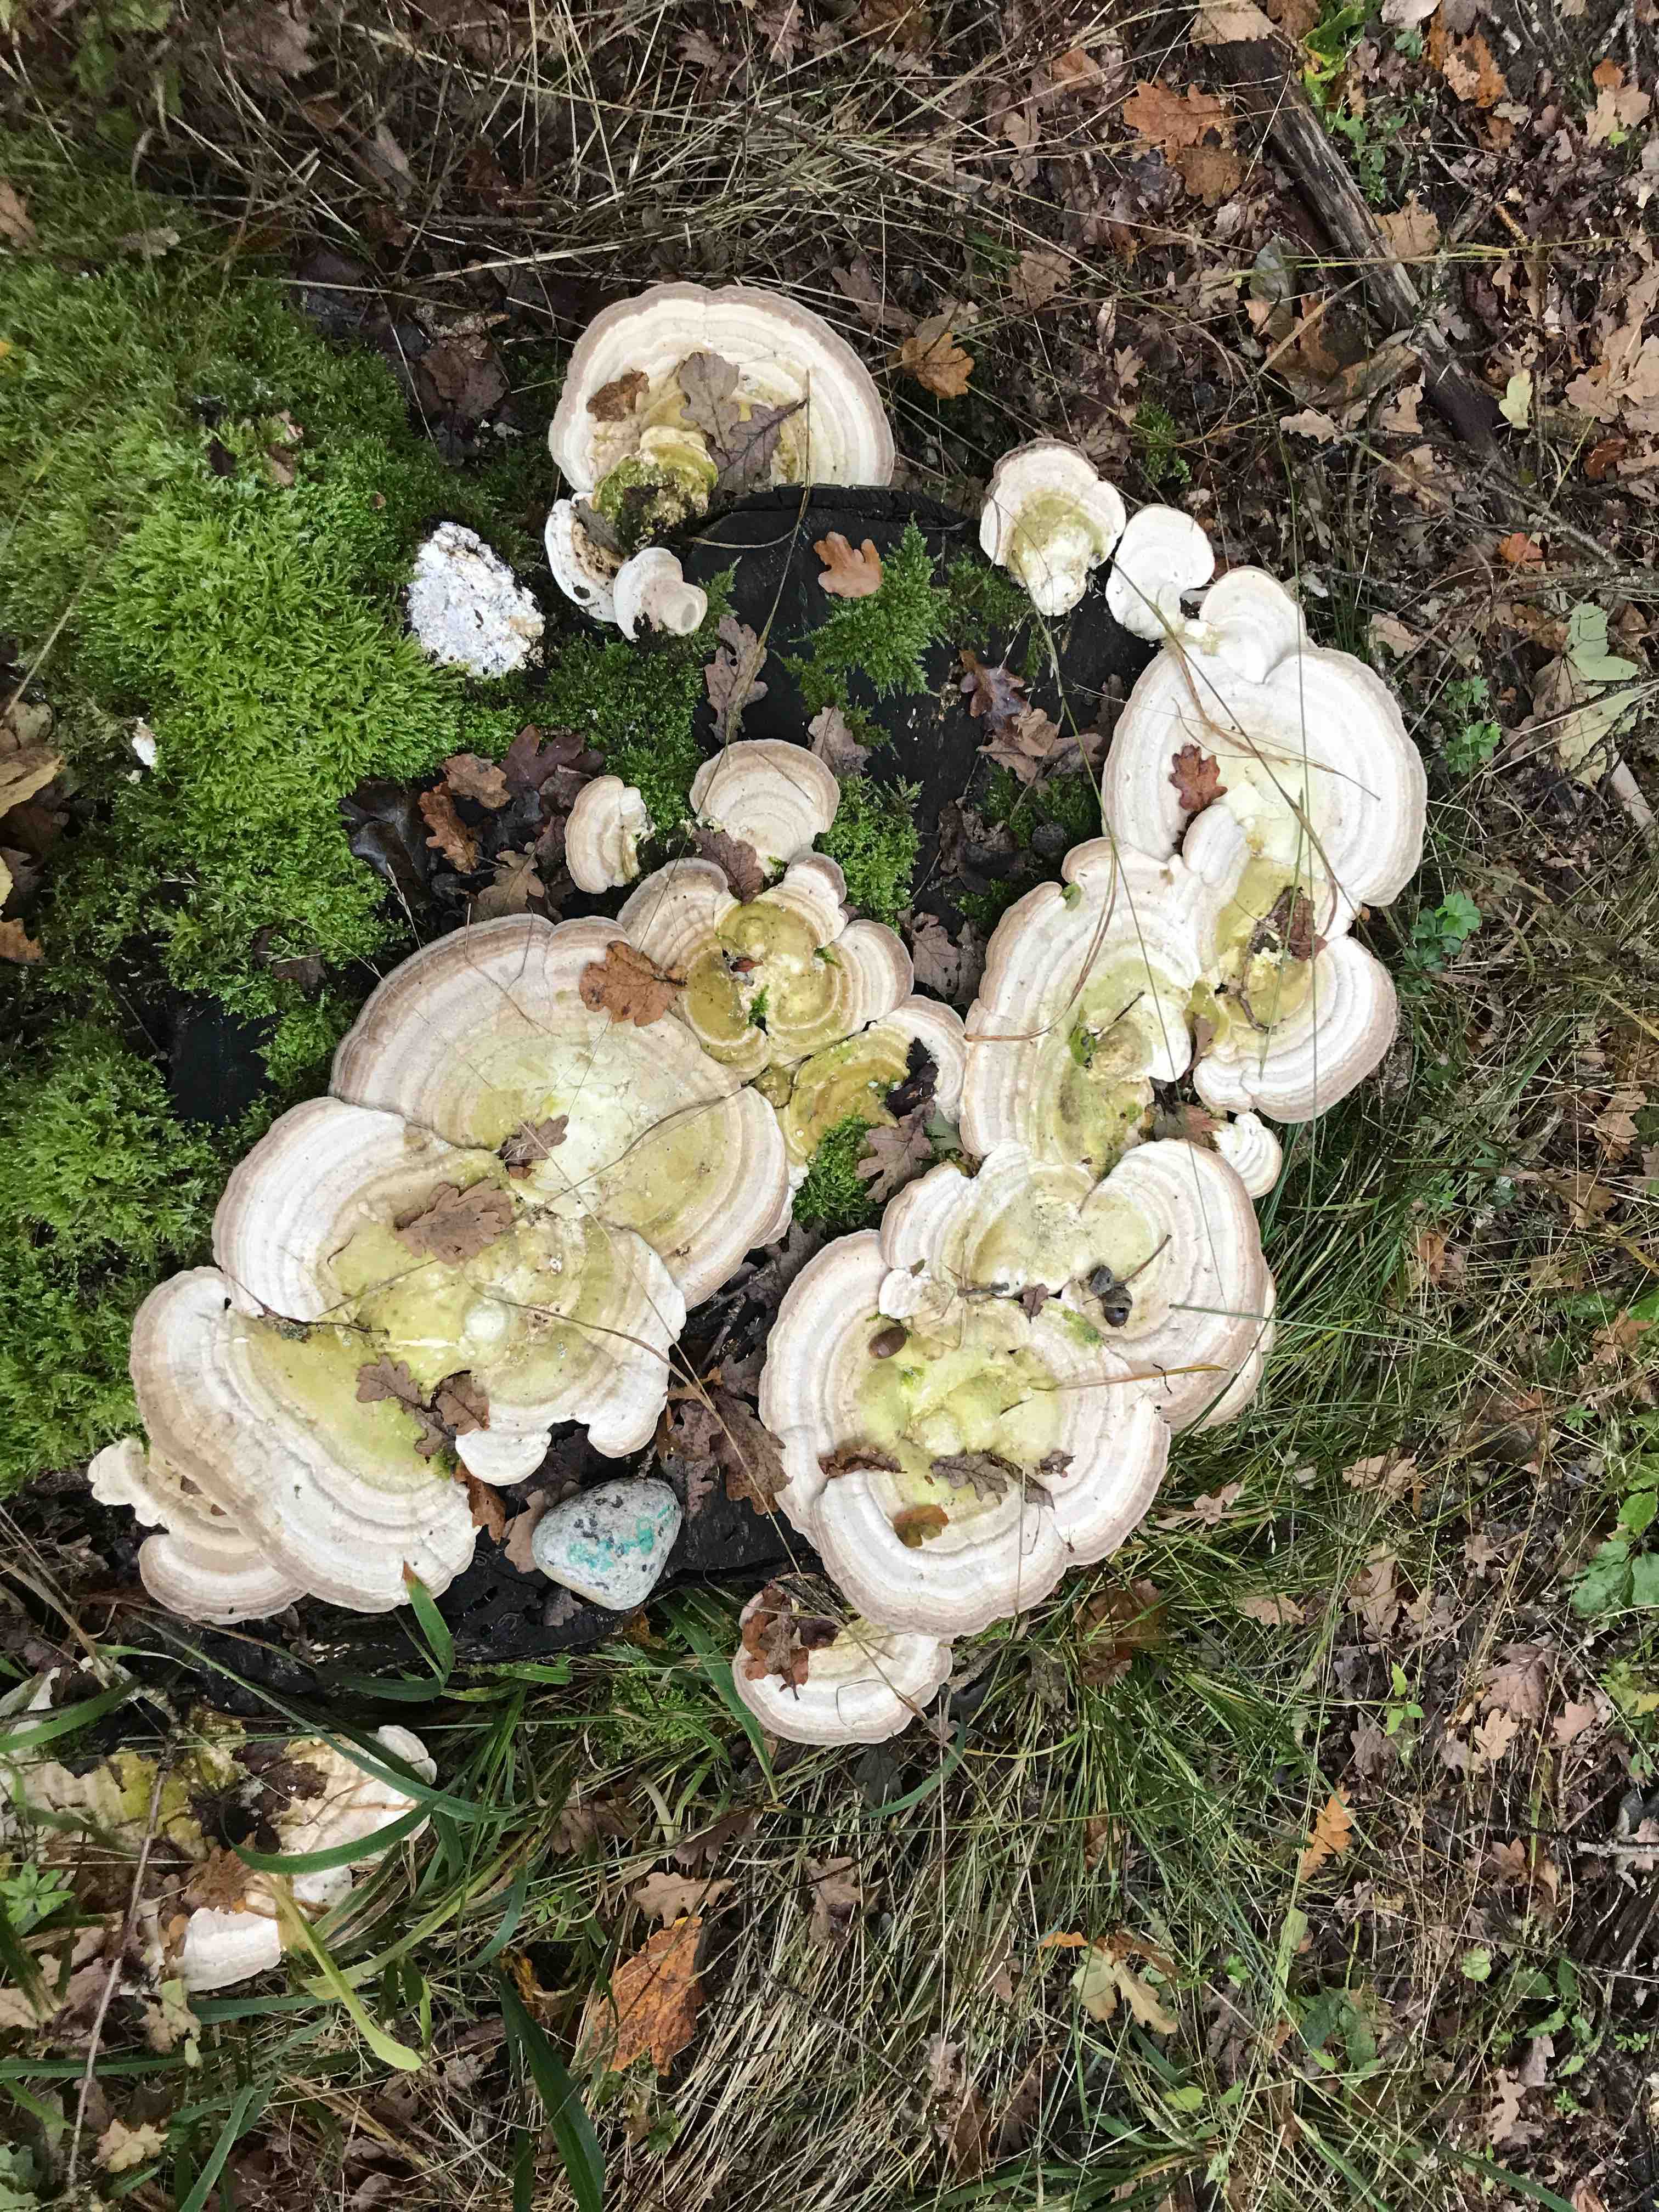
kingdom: Fungi
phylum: Basidiomycota
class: Agaricomycetes
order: Polyporales
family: Polyporaceae
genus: Trametes
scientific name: Trametes gibbosa
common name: puklet læderporesvamp
